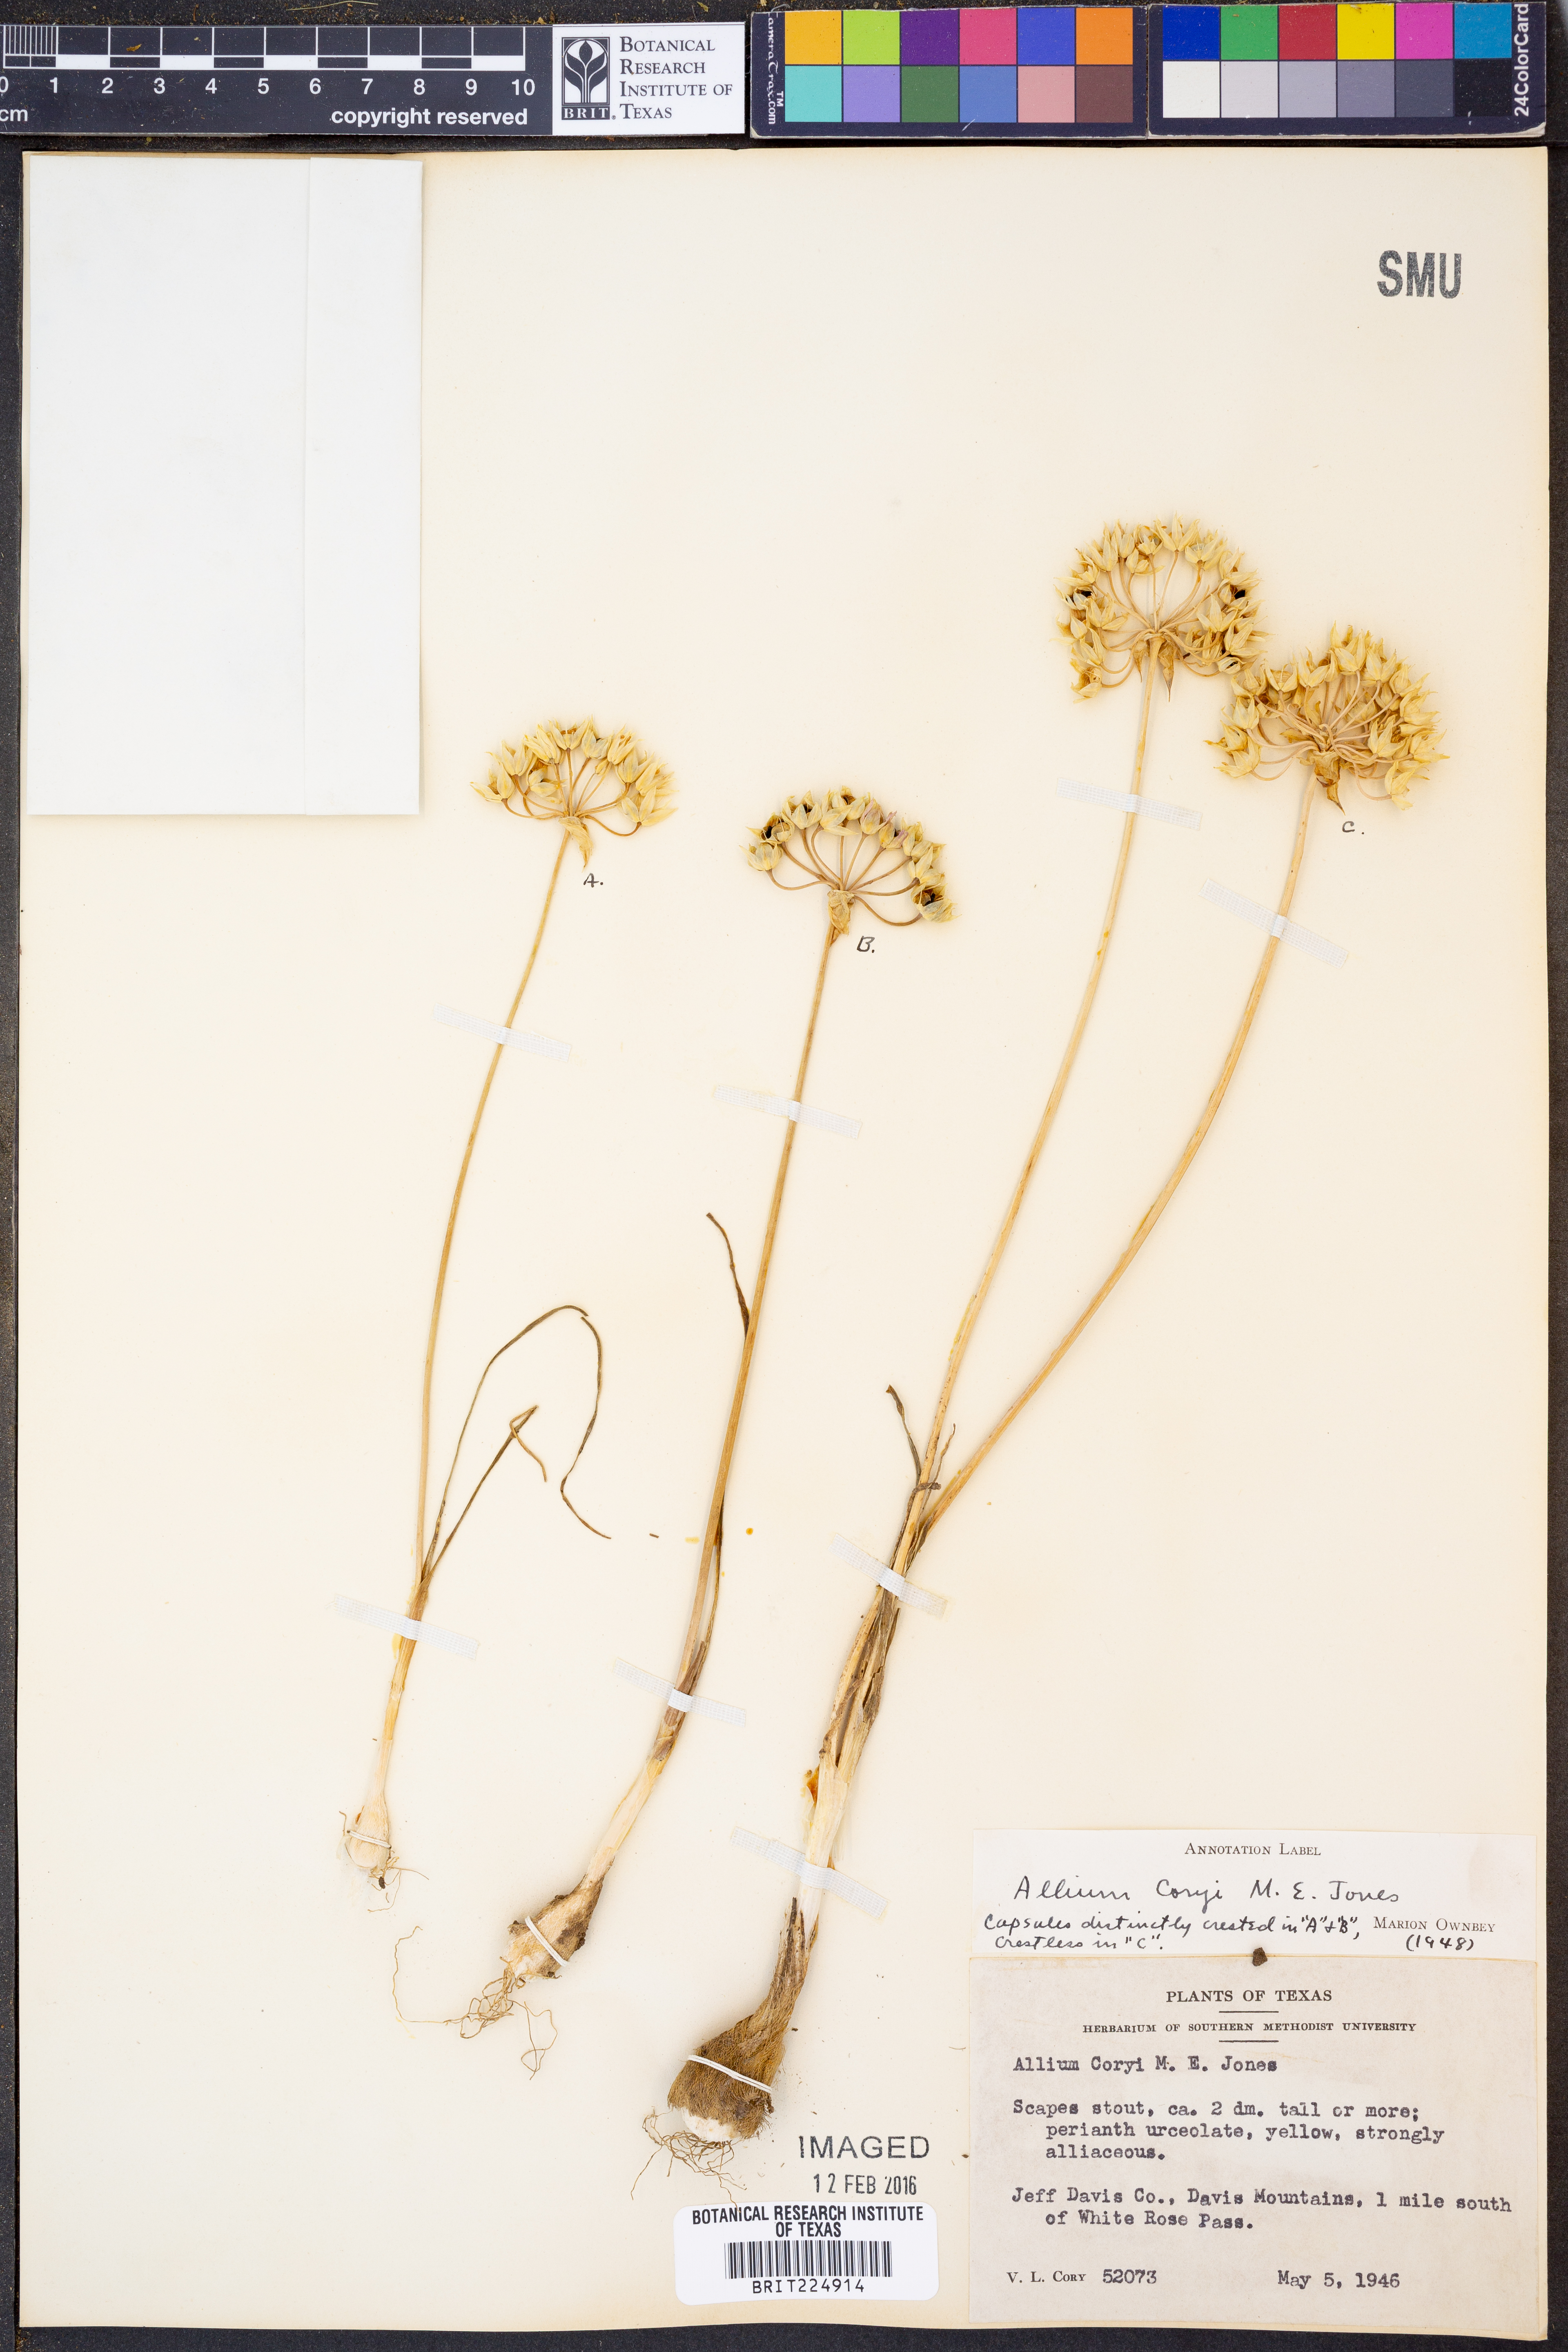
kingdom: Plantae
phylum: Tracheophyta
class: Liliopsida
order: Asparagales
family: Amaryllidaceae
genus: Allium
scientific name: Allium coryi
